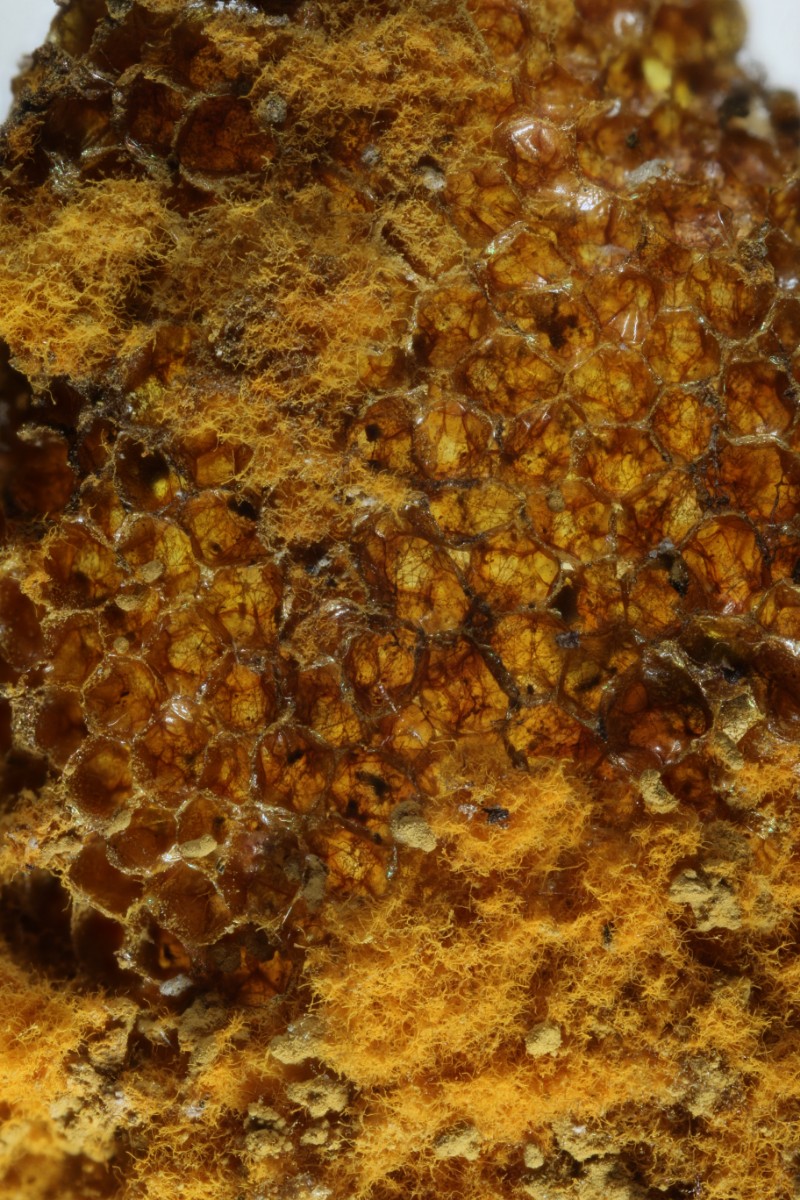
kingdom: Protozoa
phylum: Mycetozoa
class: Myxomycetes
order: Trichiales
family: Trichiaceae
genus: Trichia
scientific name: Trichia scabra
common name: tæppe-hårbold
